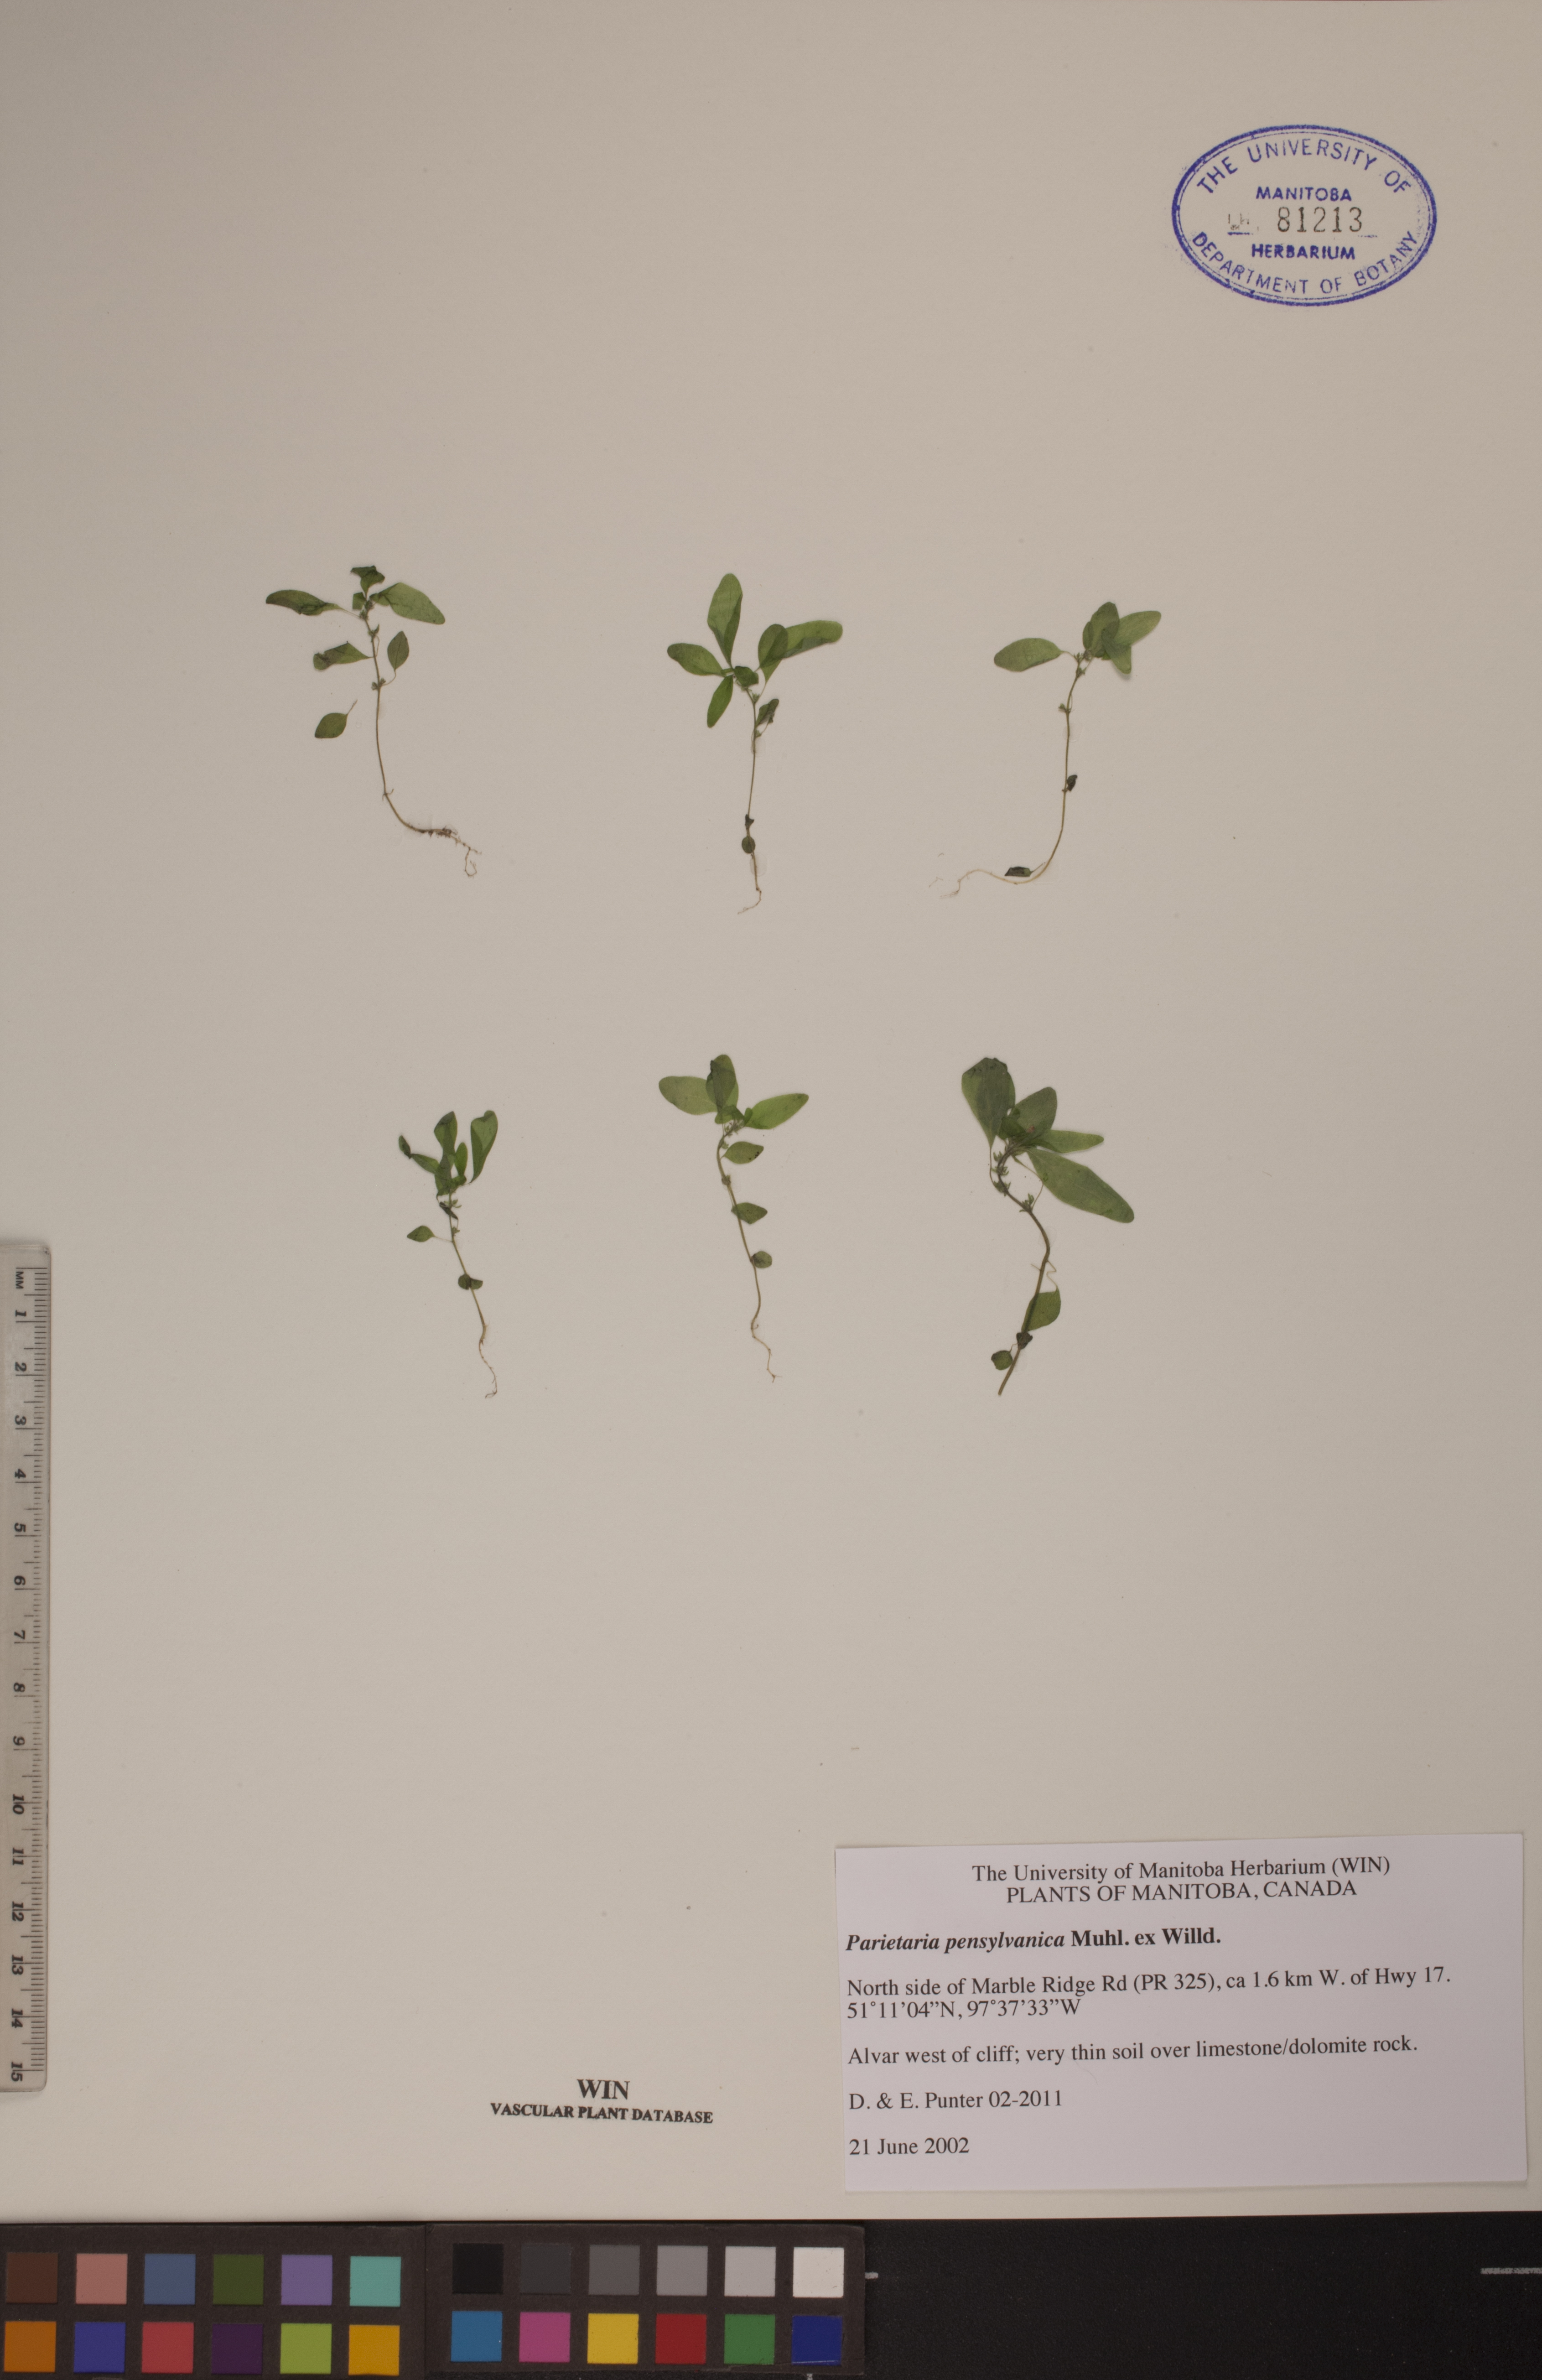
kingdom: Plantae
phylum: Tracheophyta
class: Magnoliopsida
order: Rosales
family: Urticaceae
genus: Parietaria
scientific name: Parietaria pensylvanica
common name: Pennsylvania pellitory
